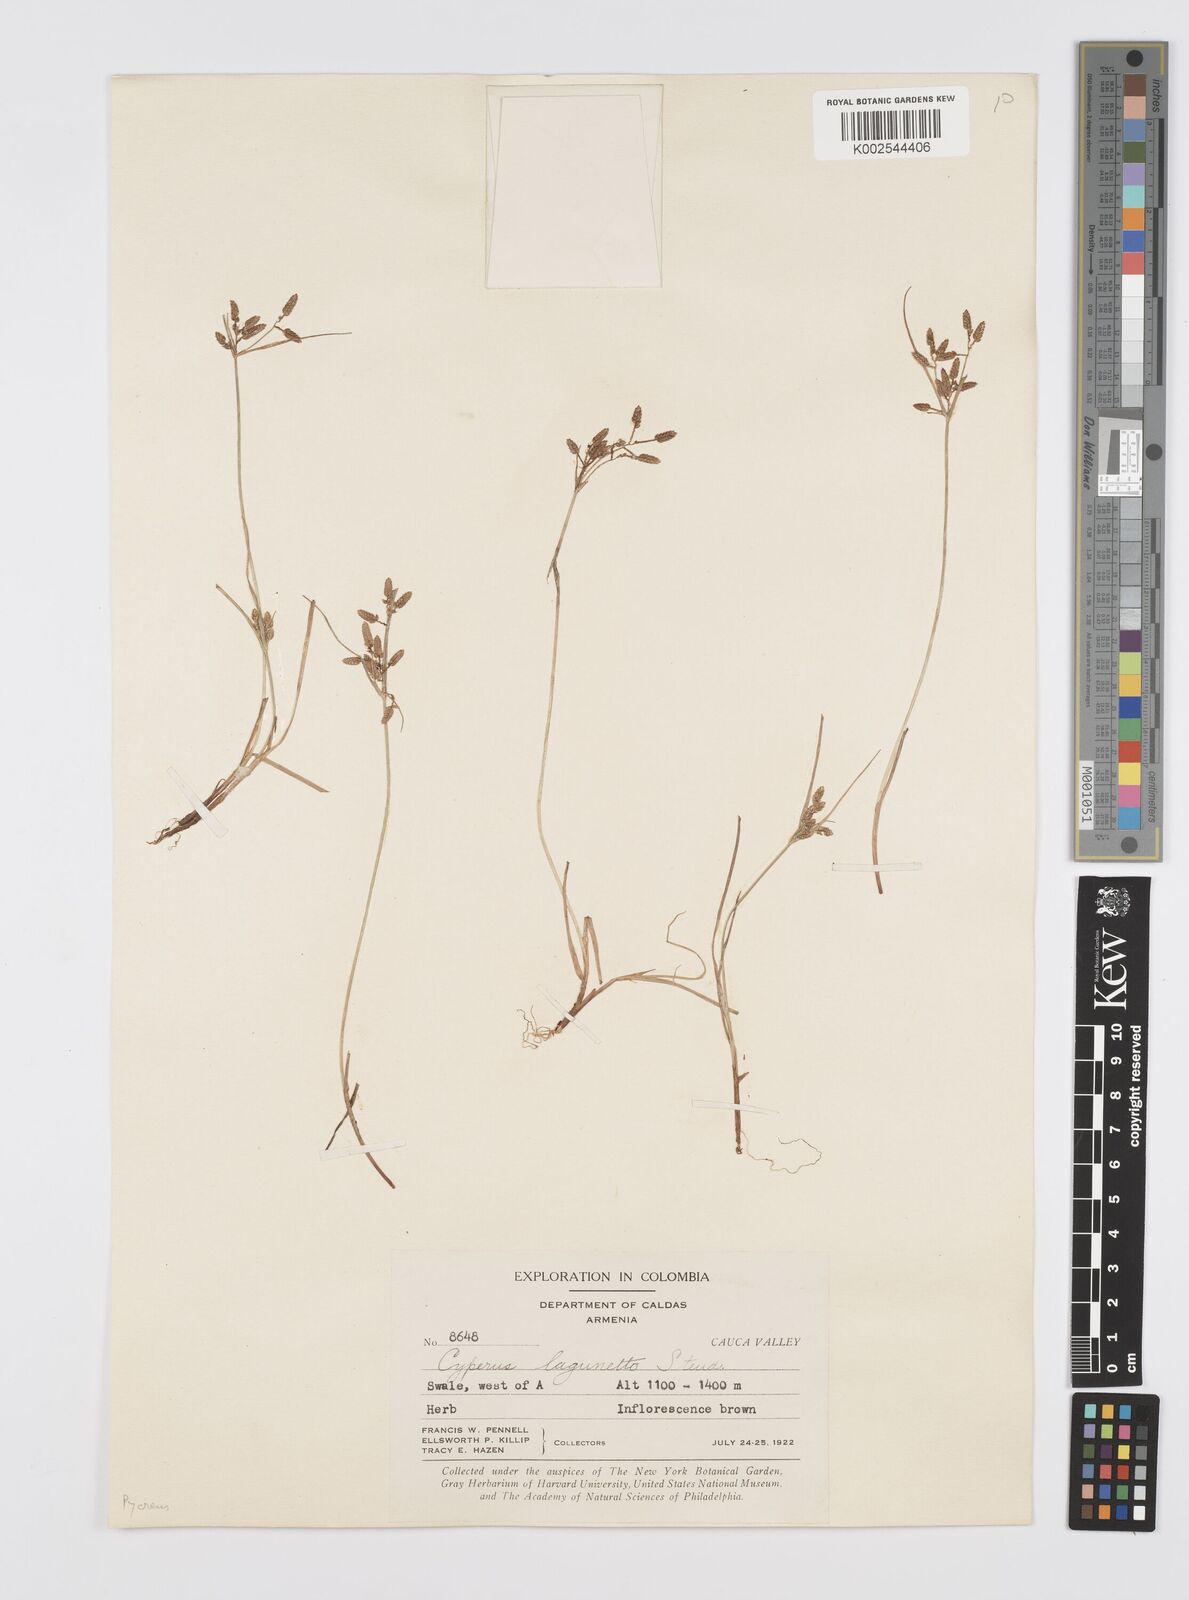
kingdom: Plantae
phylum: Tracheophyta
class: Liliopsida
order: Poales
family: Cyperaceae
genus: Cyperus
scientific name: Cyperus bipartitus
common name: Brook flatsedge
